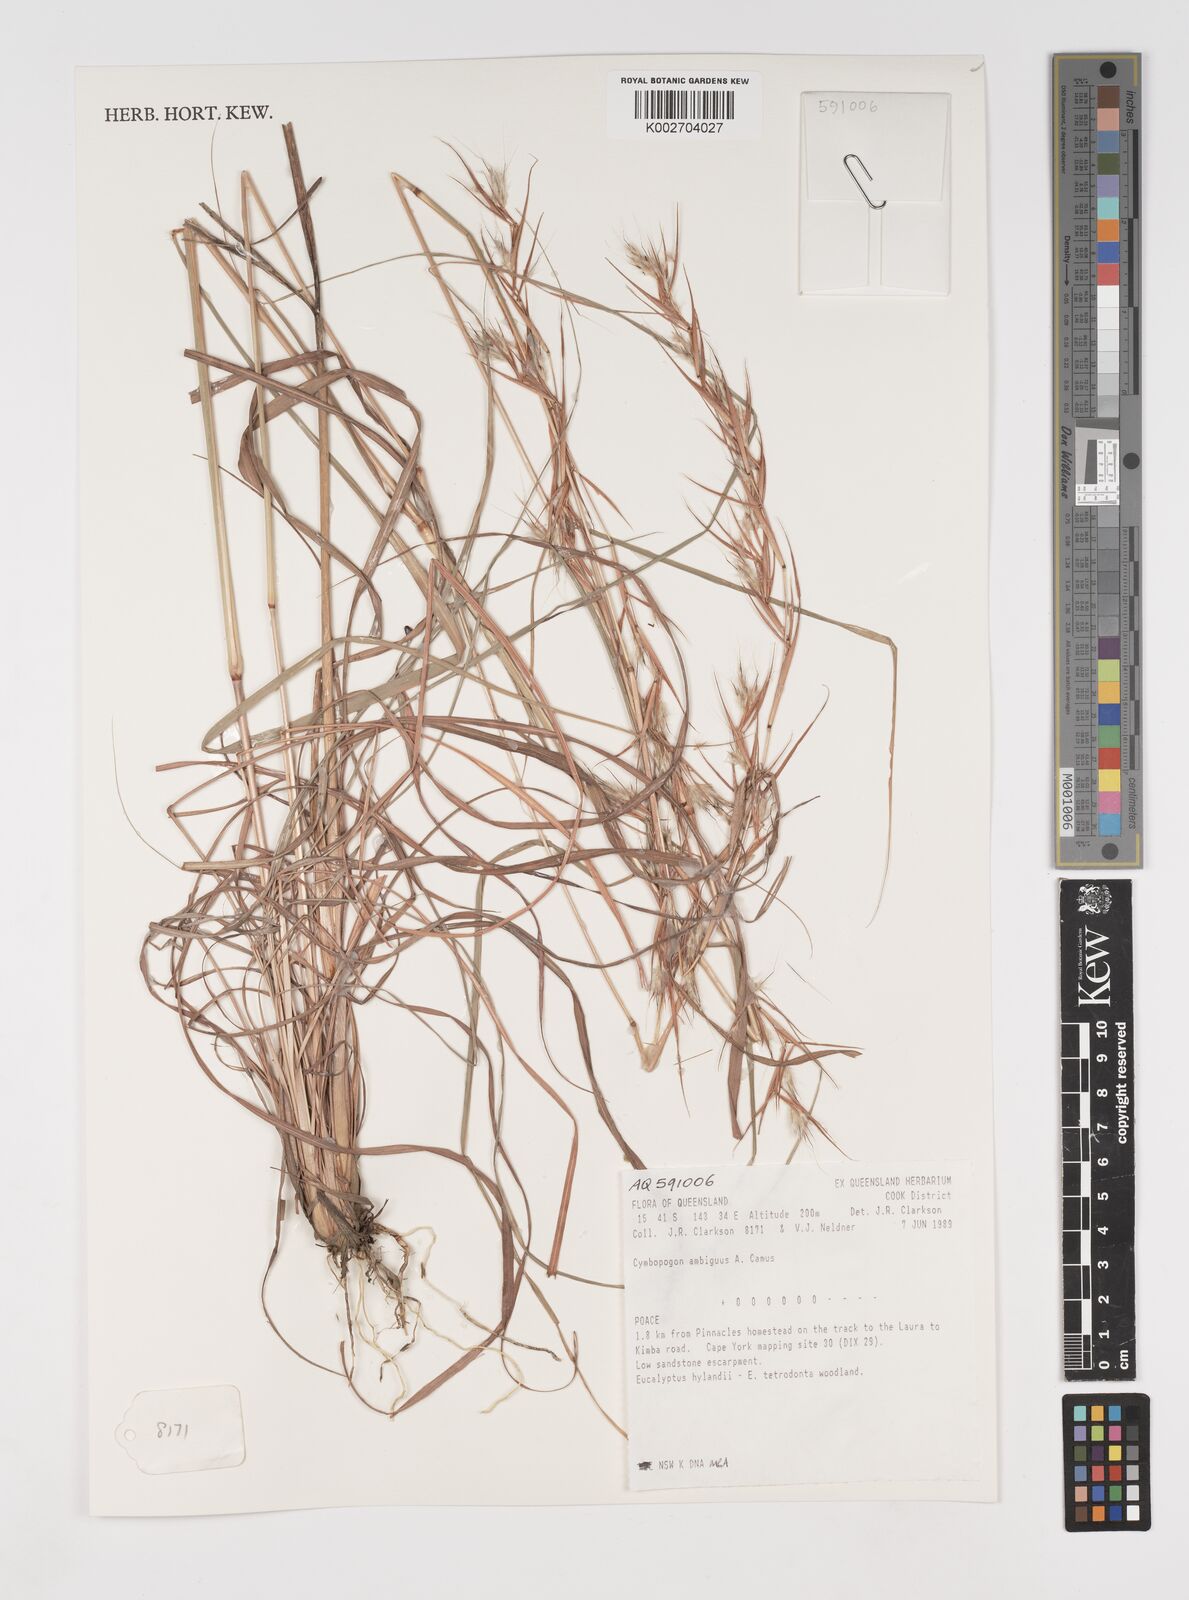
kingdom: Plantae
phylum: Tracheophyta
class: Liliopsida
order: Poales
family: Poaceae
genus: Cymbopogon
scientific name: Cymbopogon ambiguus
